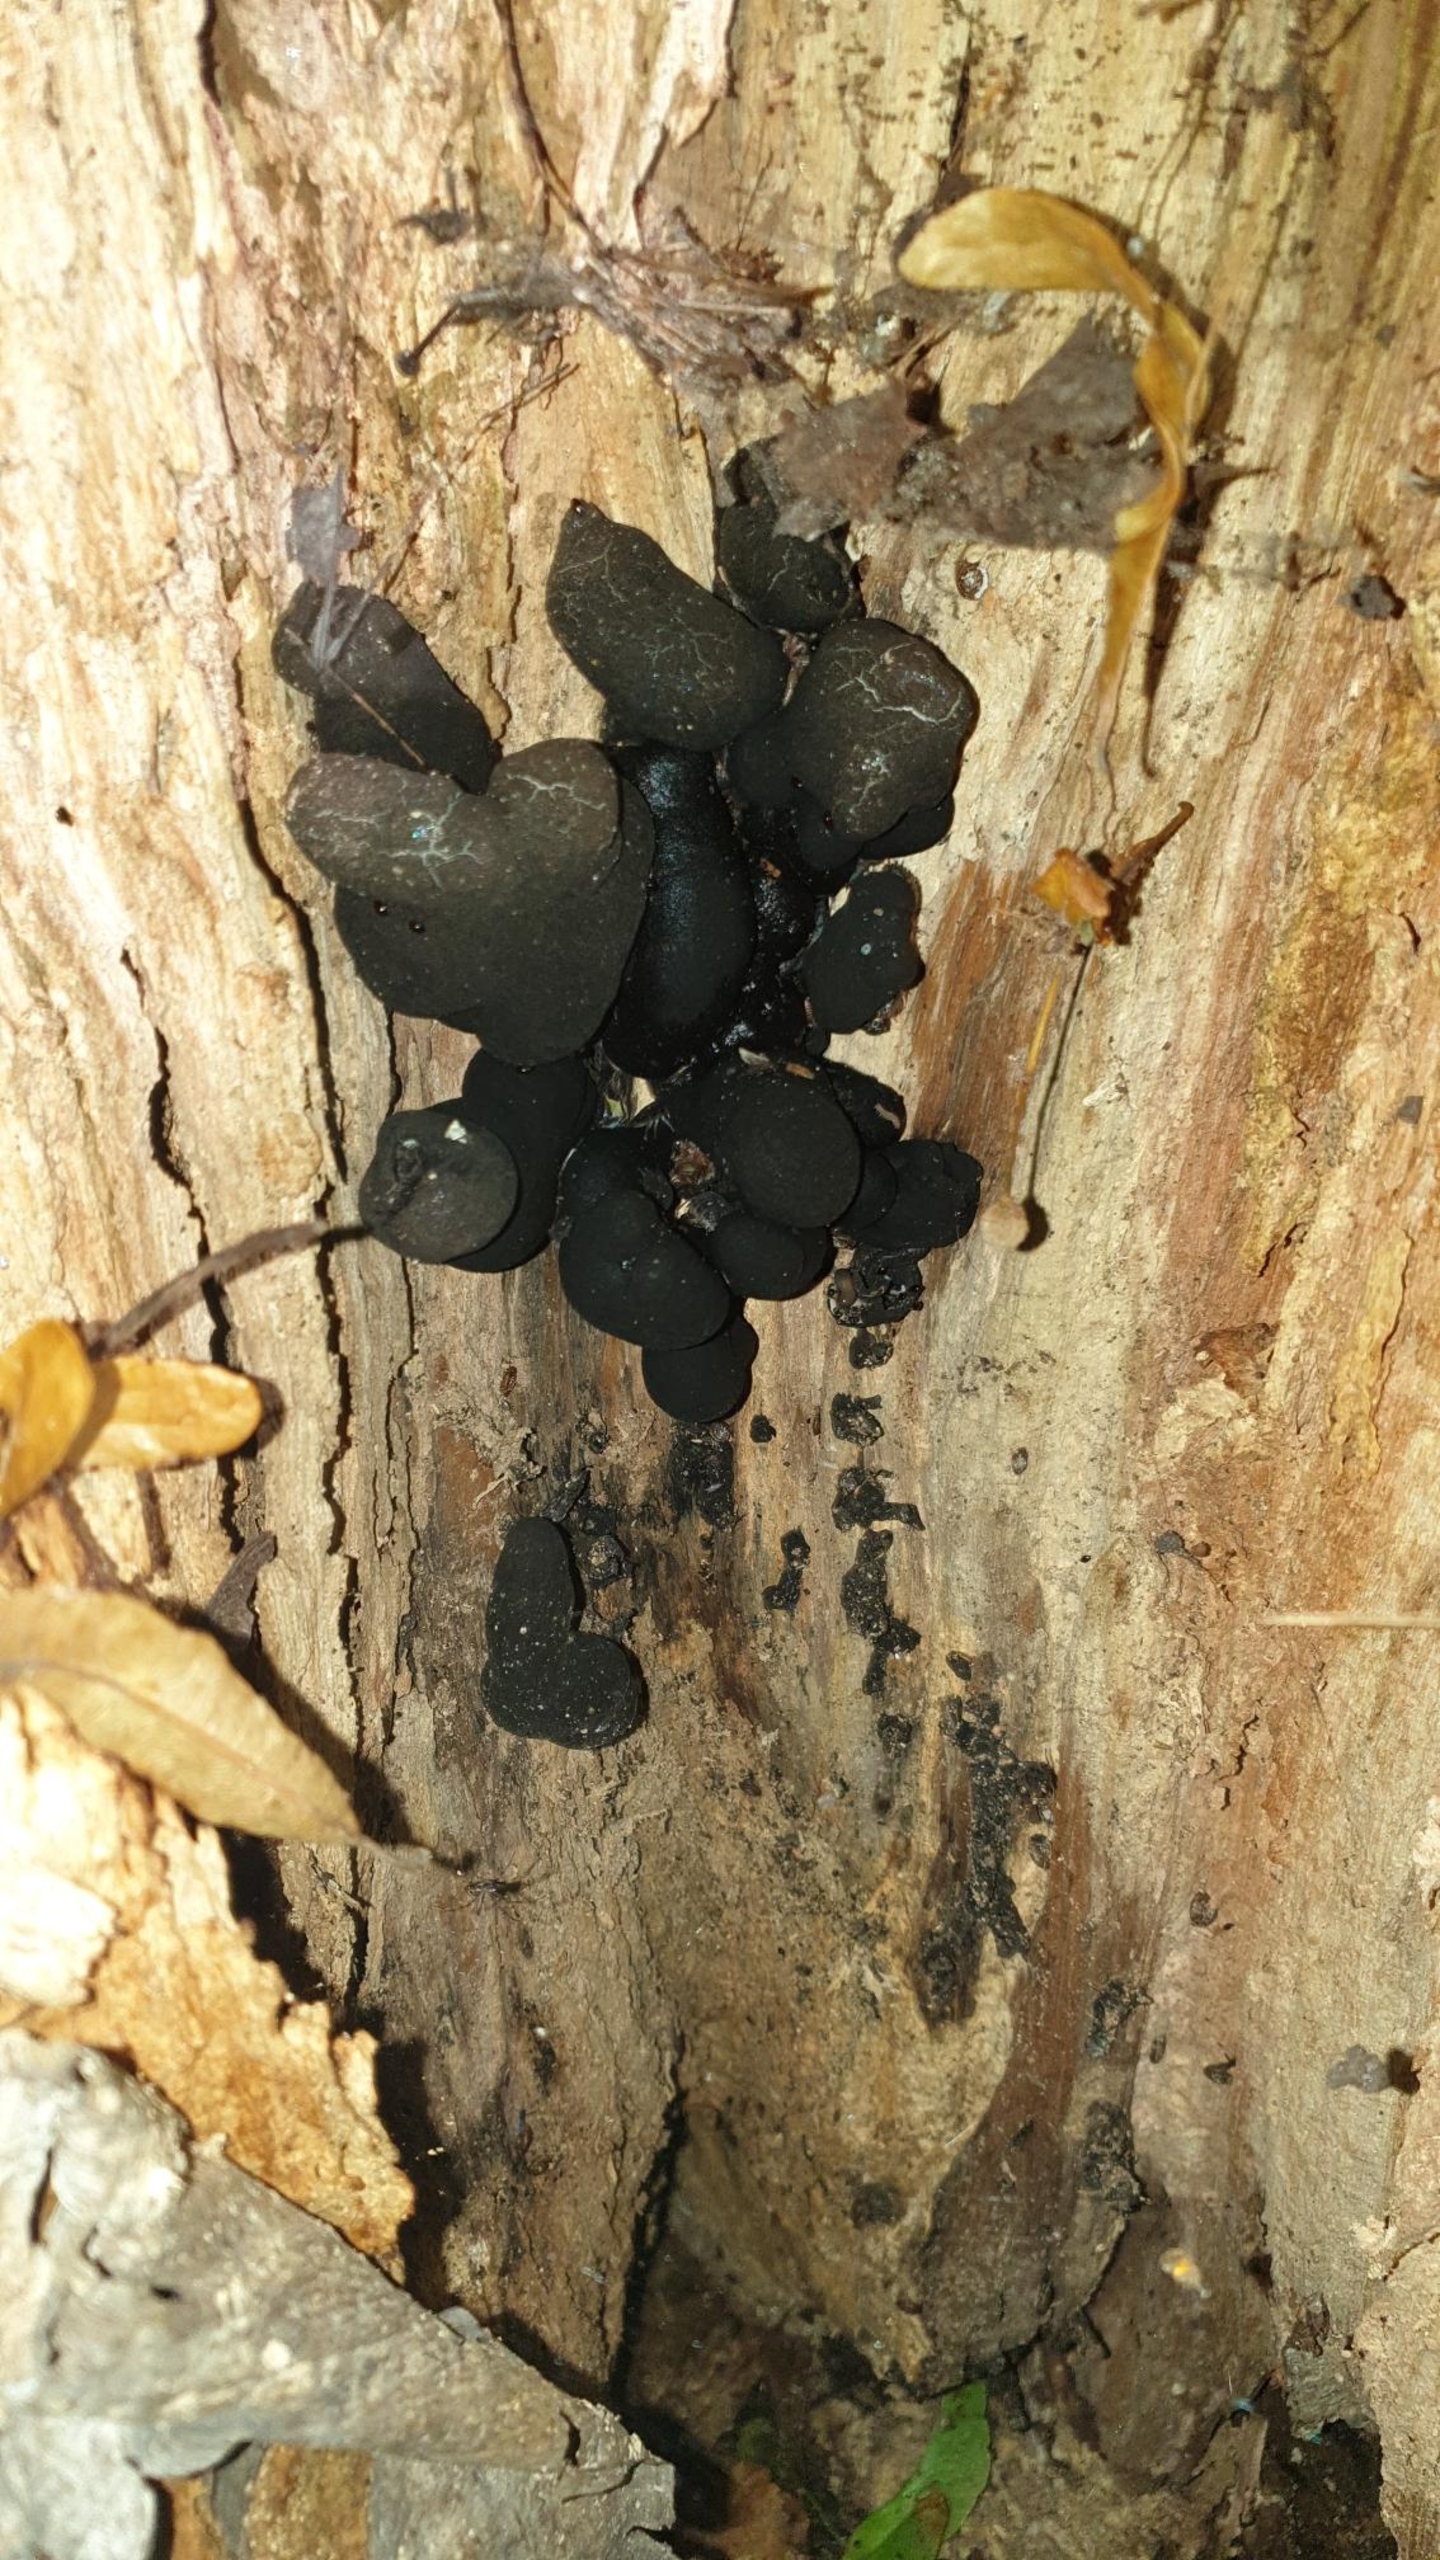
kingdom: Fungi
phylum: Ascomycota
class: Sordariomycetes
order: Xylariales
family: Xylariaceae
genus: Xylaria
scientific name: Xylaria polymorpha
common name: Kølle-stødsvamp
